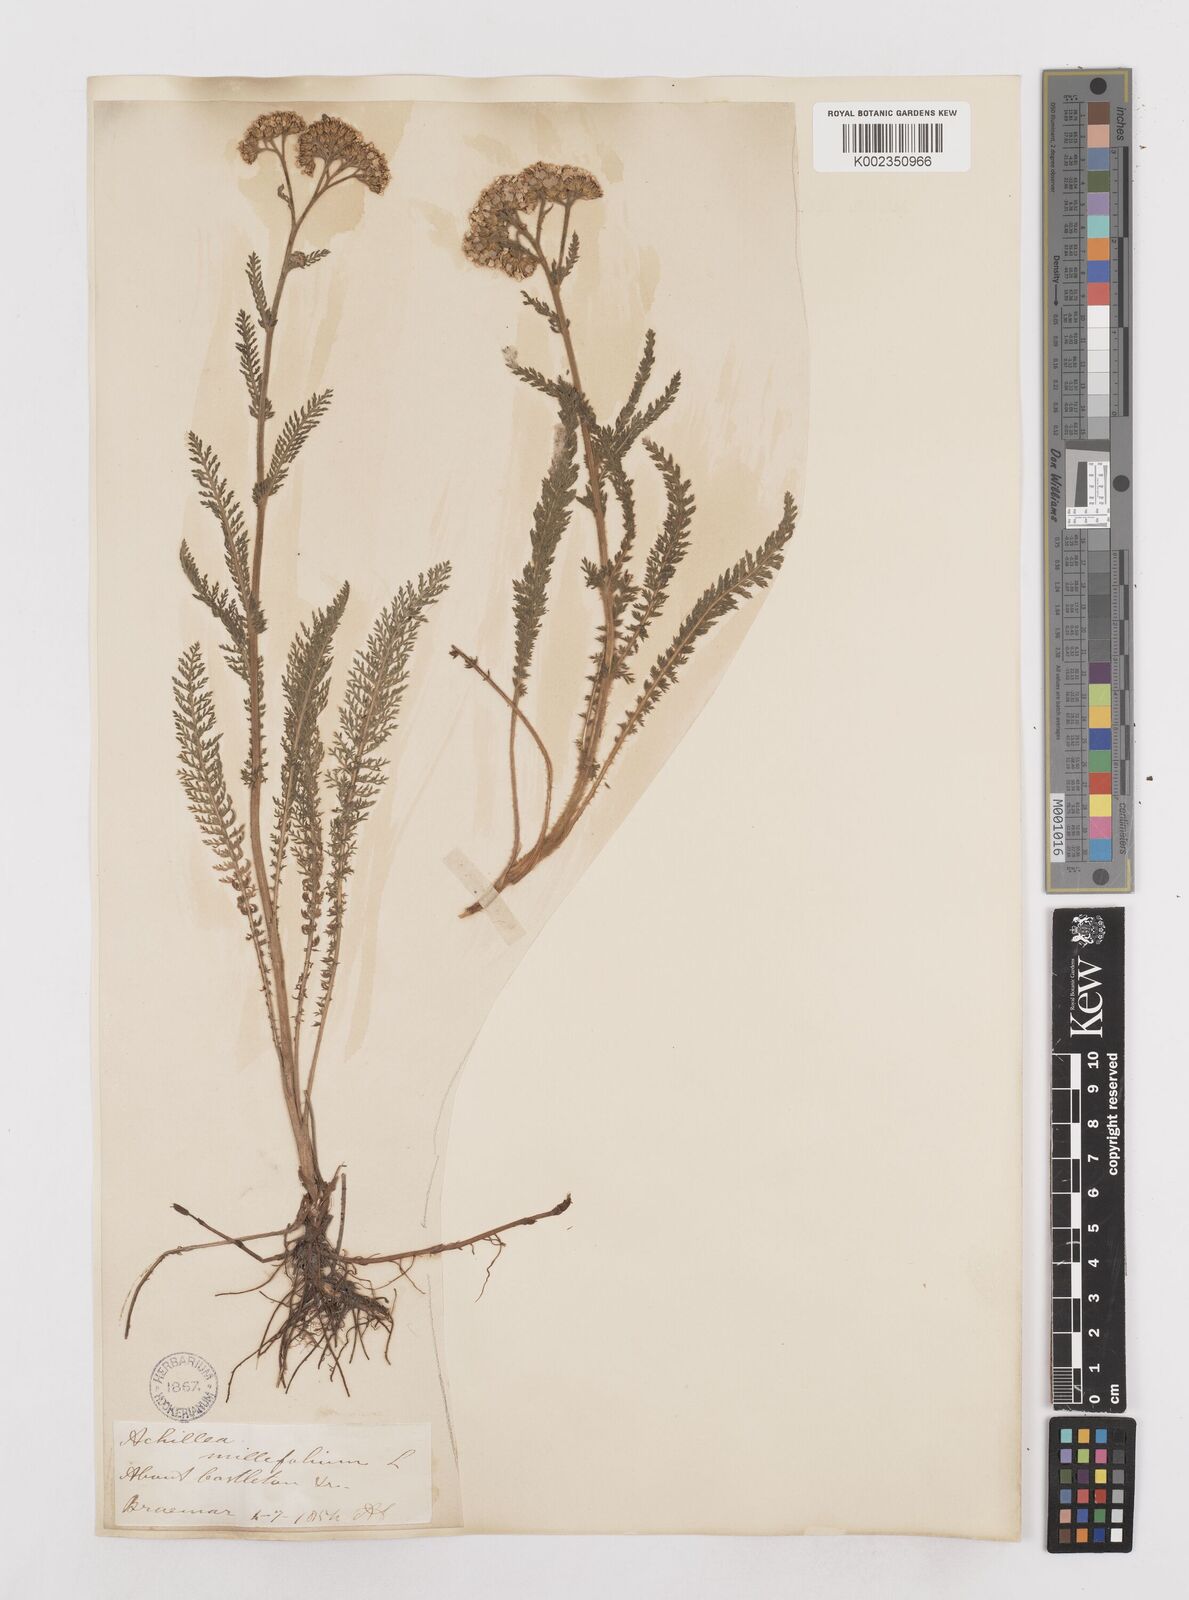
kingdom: Plantae
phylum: Tracheophyta
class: Magnoliopsida
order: Asterales
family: Asteraceae
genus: Achillea
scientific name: Achillea millefolium
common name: Yarrow
